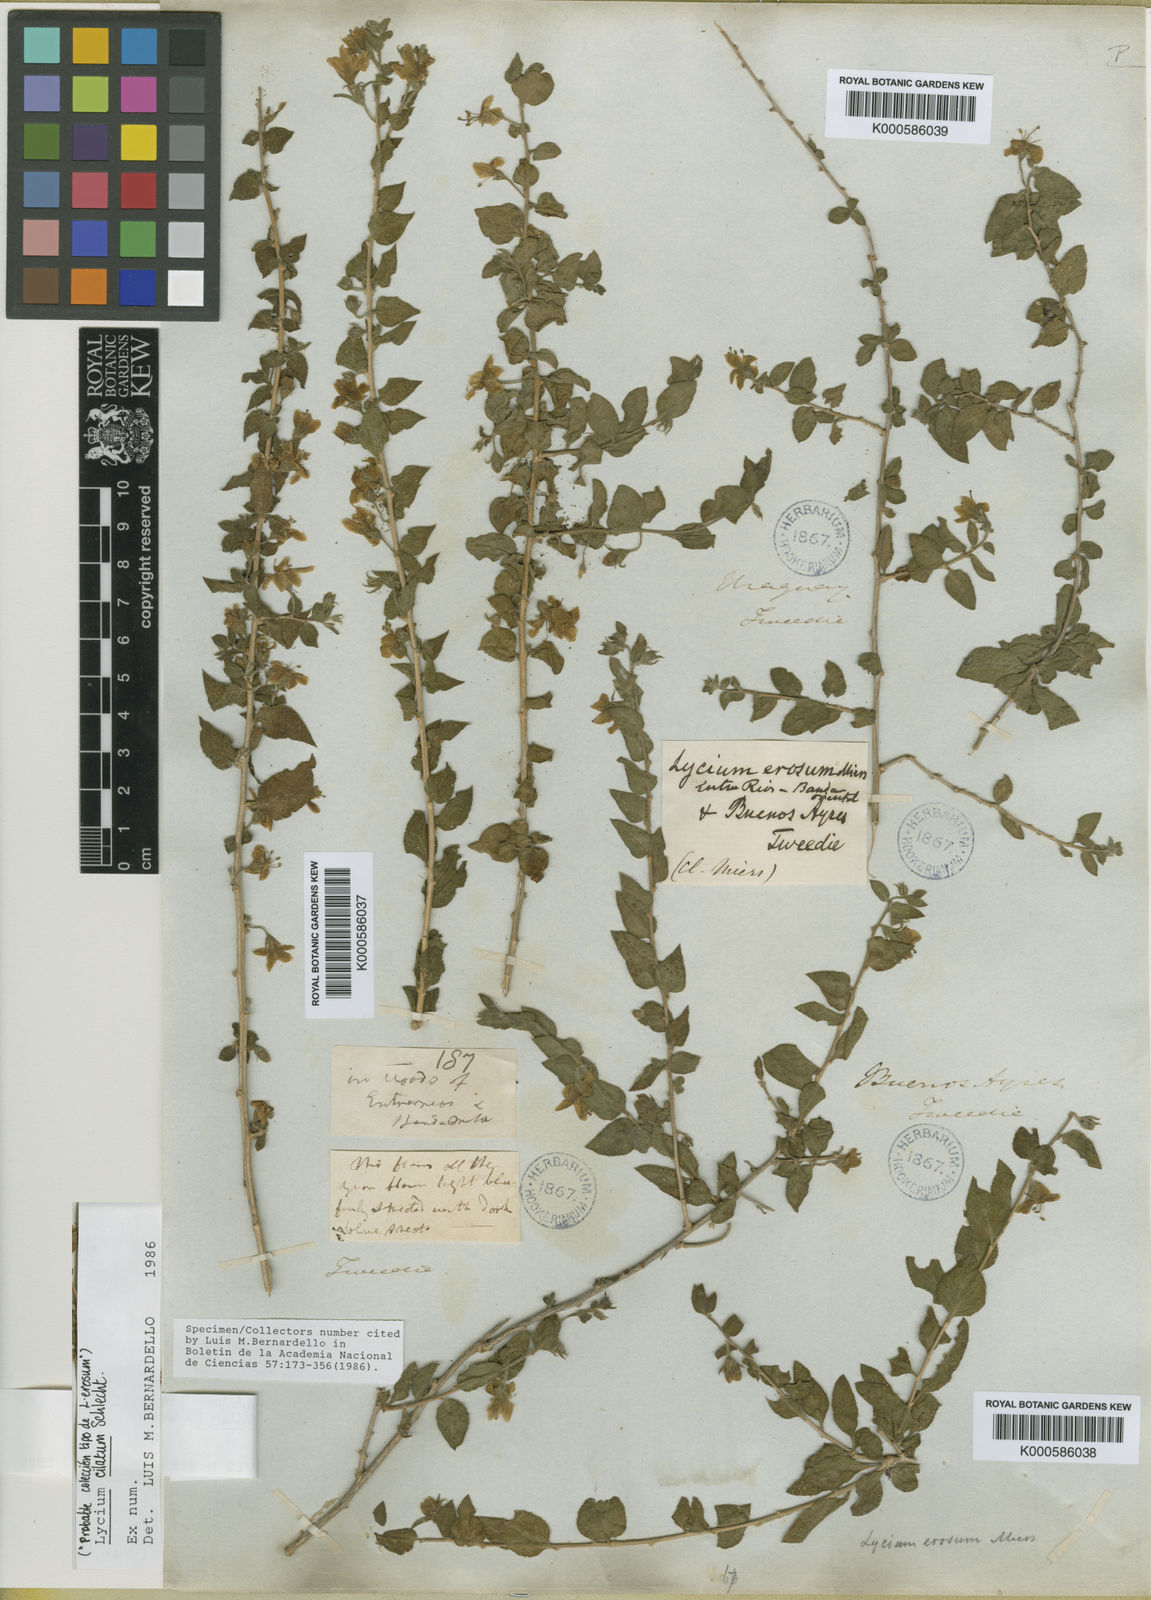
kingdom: Plantae
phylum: Tracheophyta
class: Magnoliopsida
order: Solanales
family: Solanaceae
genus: Lycium
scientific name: Lycium ciliatum
